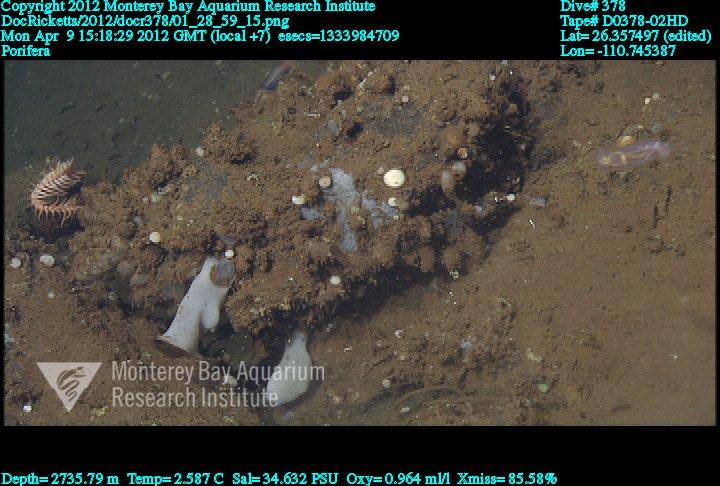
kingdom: Animalia
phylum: Porifera
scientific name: Porifera
